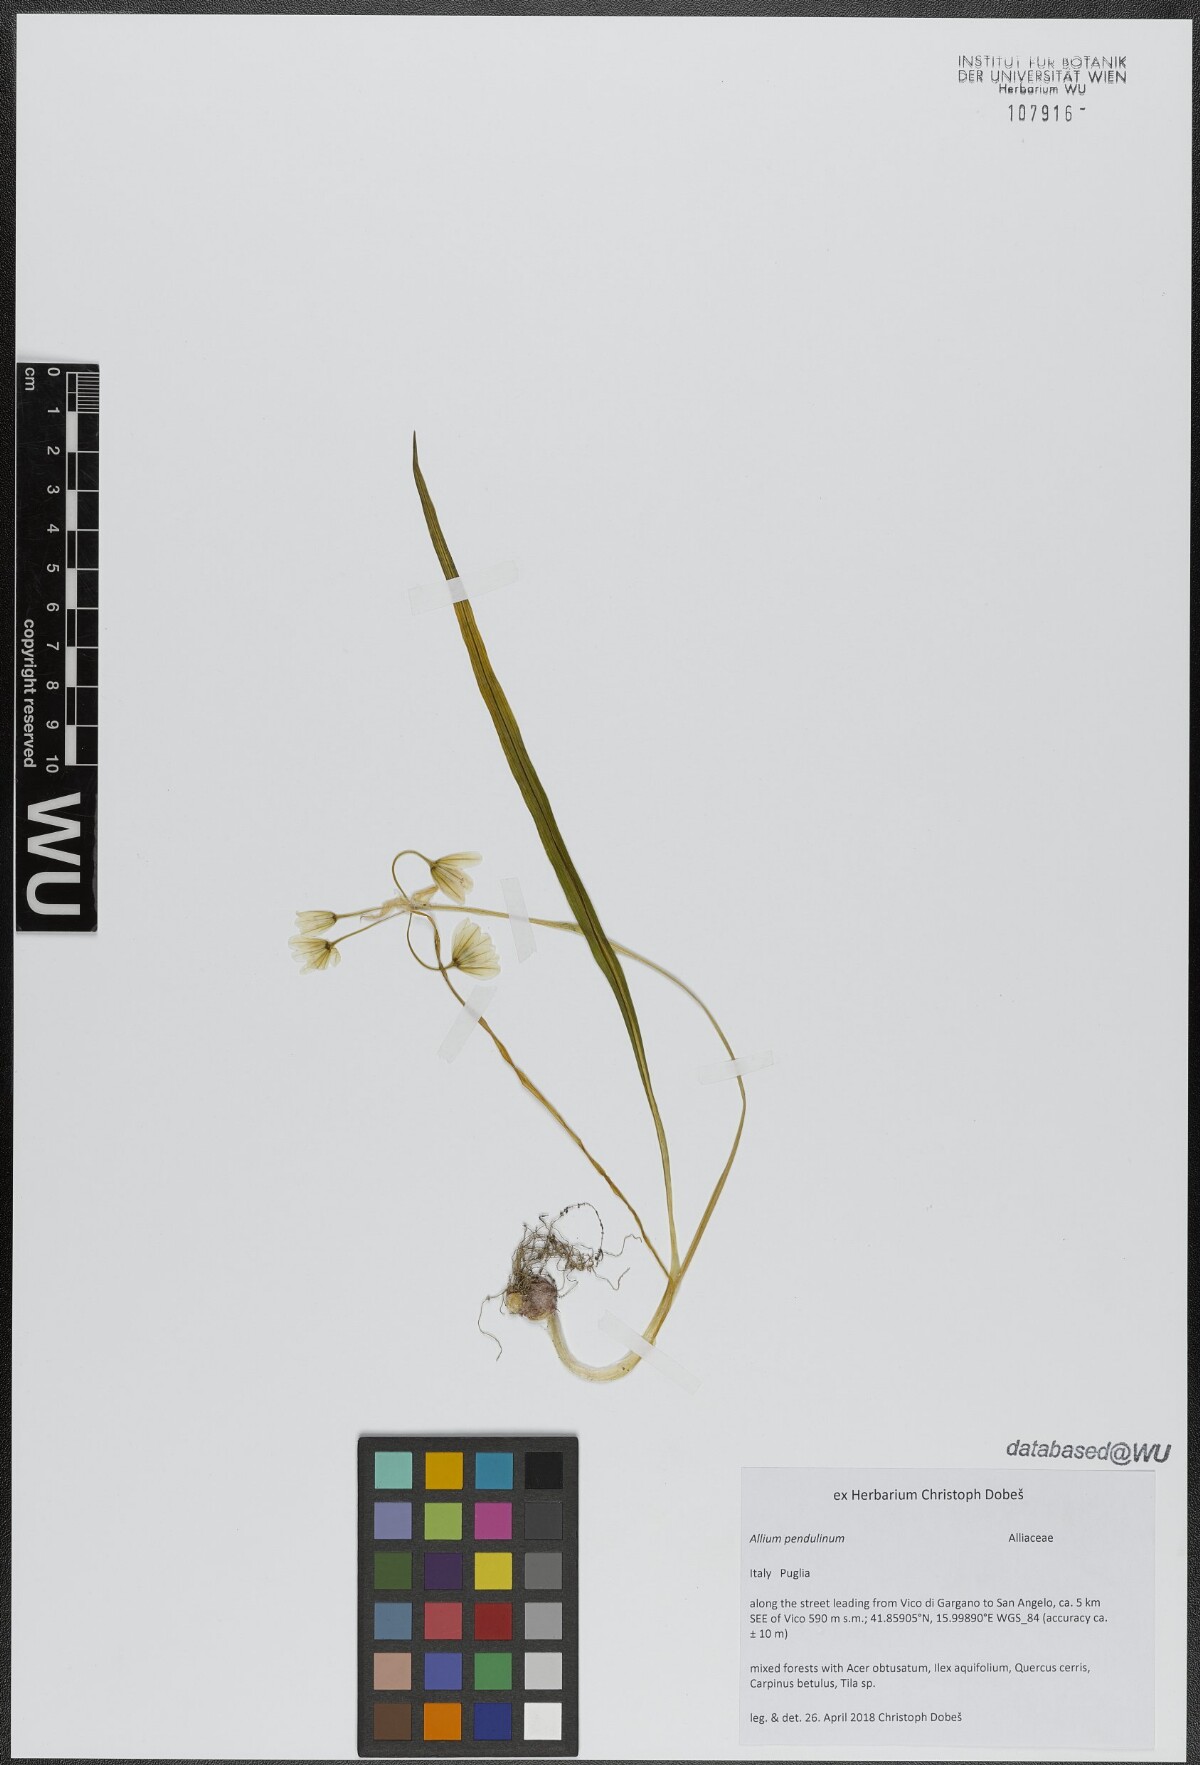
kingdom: Plantae
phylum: Tracheophyta
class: Liliopsida
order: Asparagales
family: Amaryllidaceae
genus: Allium
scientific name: Allium pendulinum
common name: Italian garlic
